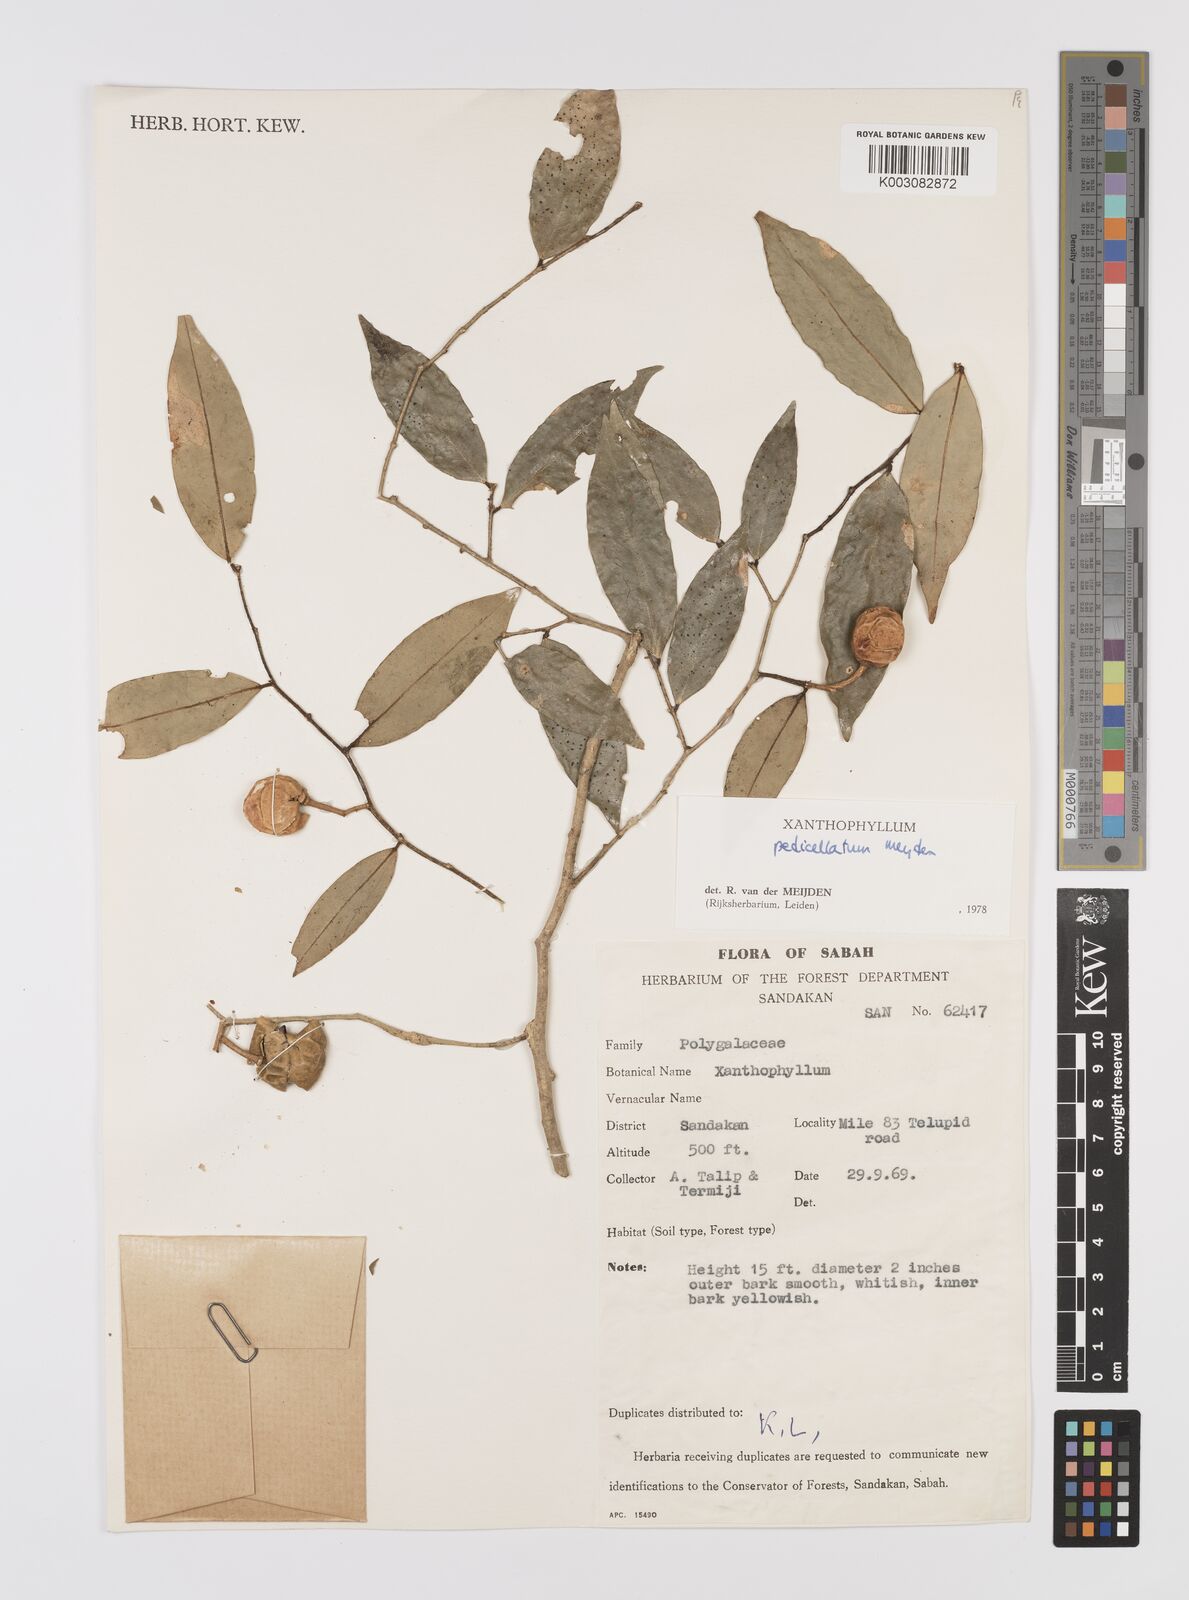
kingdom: Plantae
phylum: Tracheophyta
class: Magnoliopsida
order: Fabales
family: Polygalaceae
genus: Xanthophyllum
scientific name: Xanthophyllum pedicellatum
